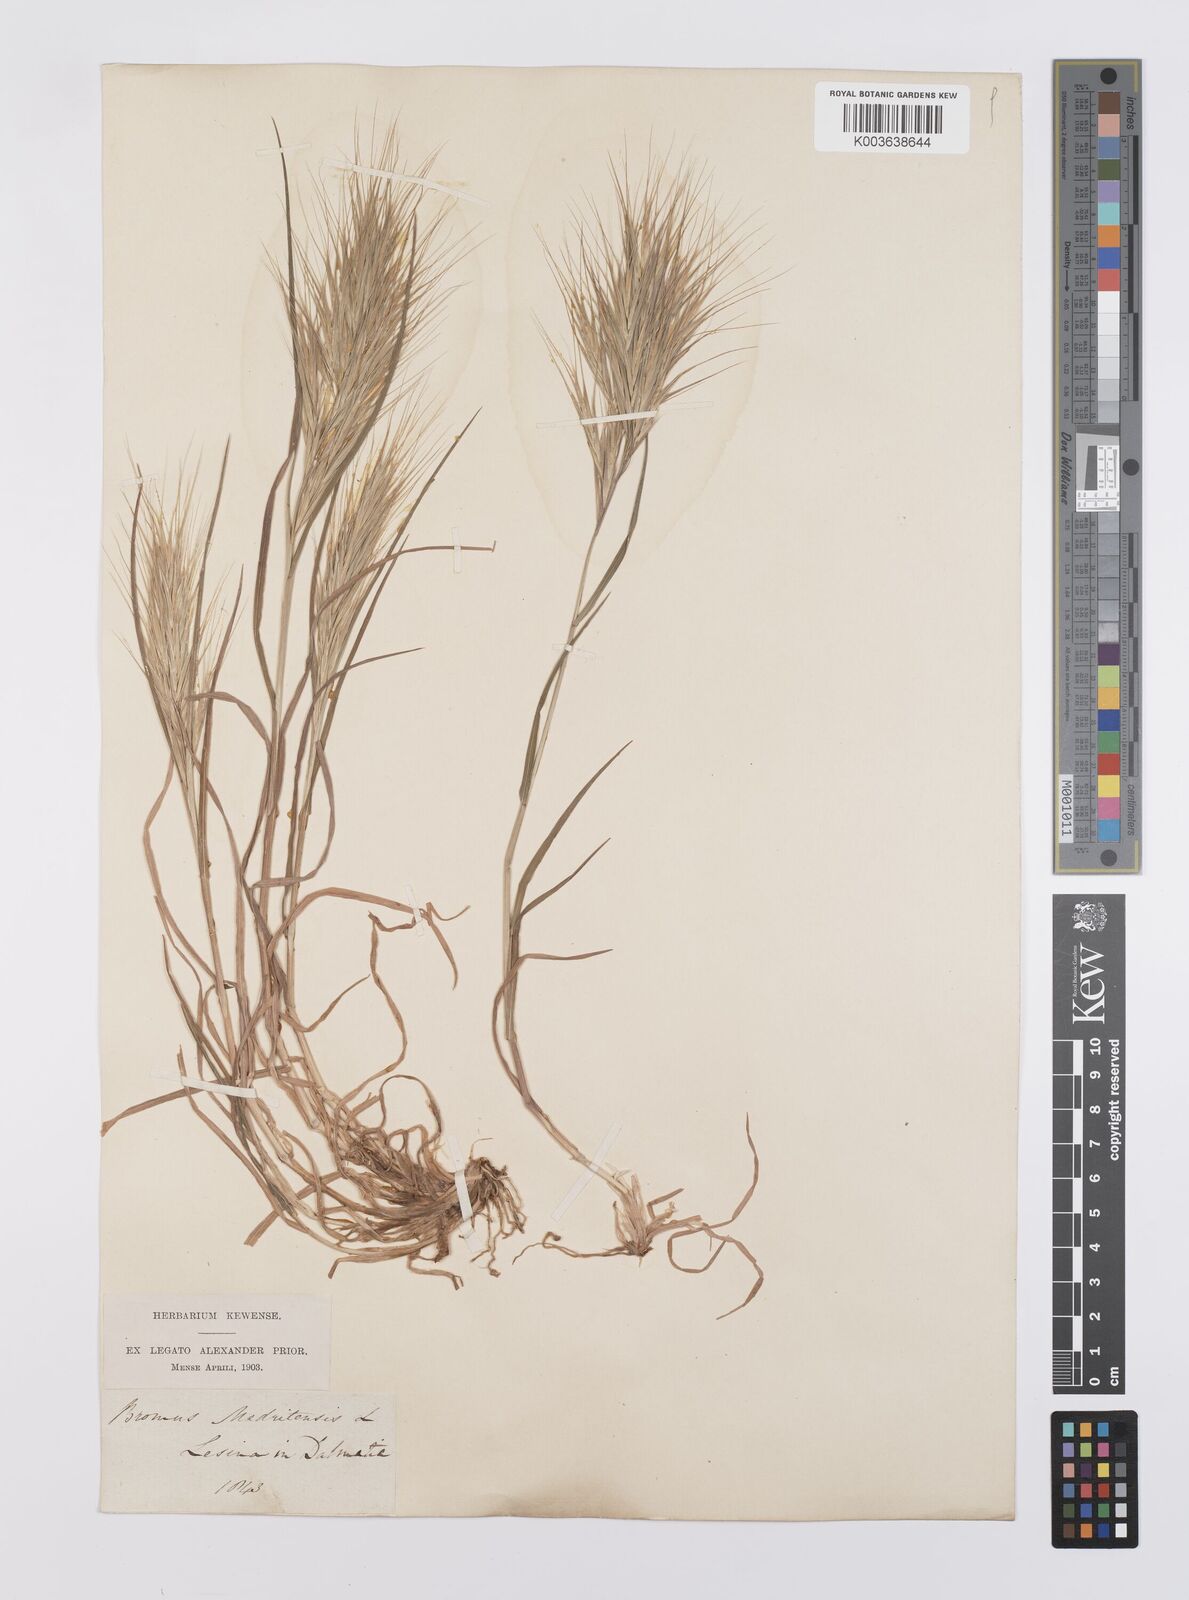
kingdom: Plantae
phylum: Tracheophyta
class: Liliopsida
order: Poales
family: Poaceae
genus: Bromus
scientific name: Bromus madritensis
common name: Compact brome
